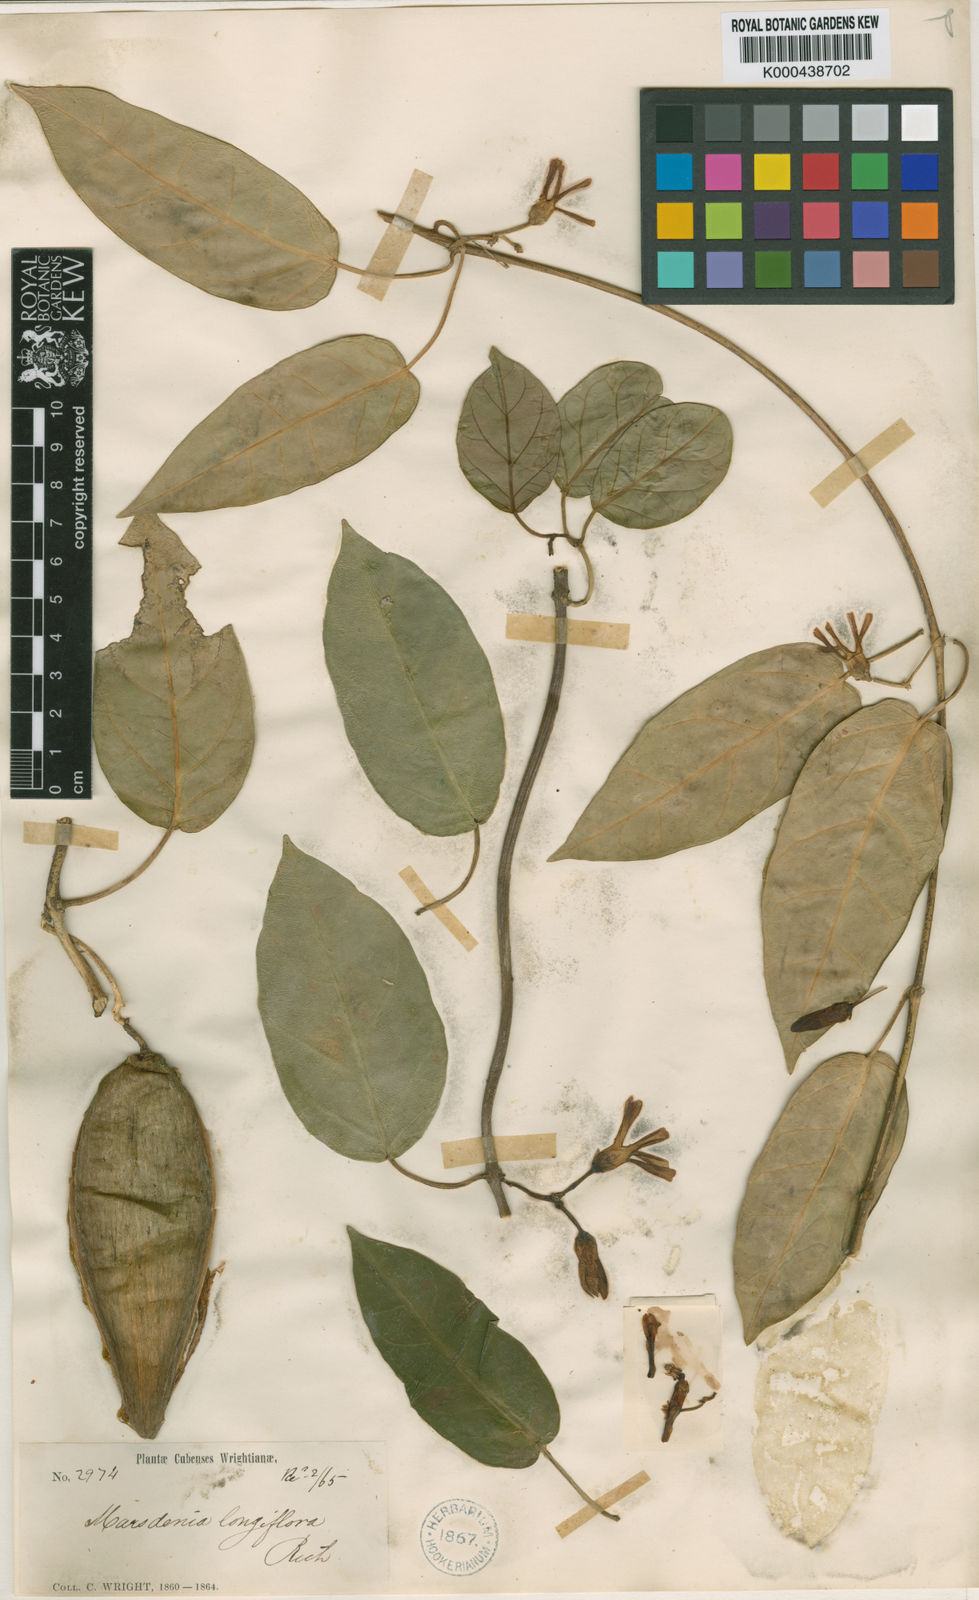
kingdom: Plantae
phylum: Tracheophyta
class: Magnoliopsida
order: Gentianales
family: Apocynaceae
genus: Ruehssia
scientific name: Ruehssia longiflora
